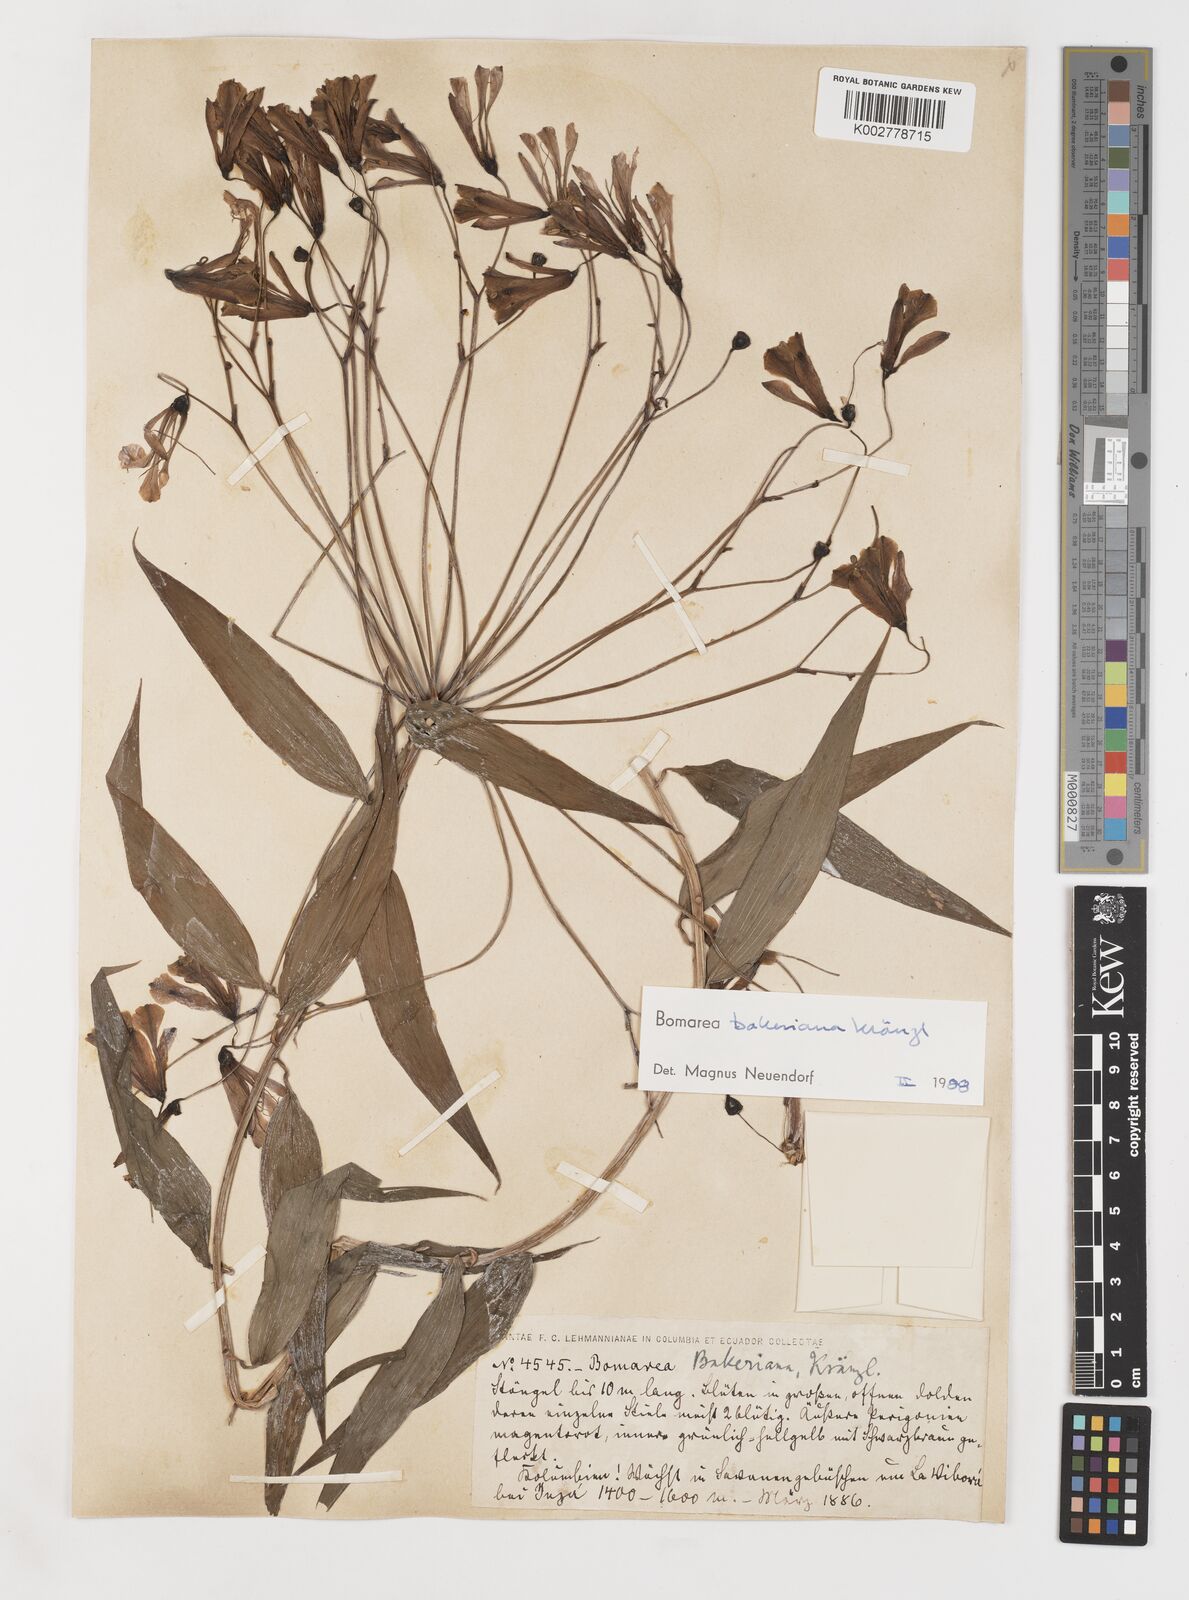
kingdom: Plantae
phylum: Tracheophyta
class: Liliopsida
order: Liliales
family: Alstroemeriaceae
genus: Bomarea
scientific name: Bomarea edulis
